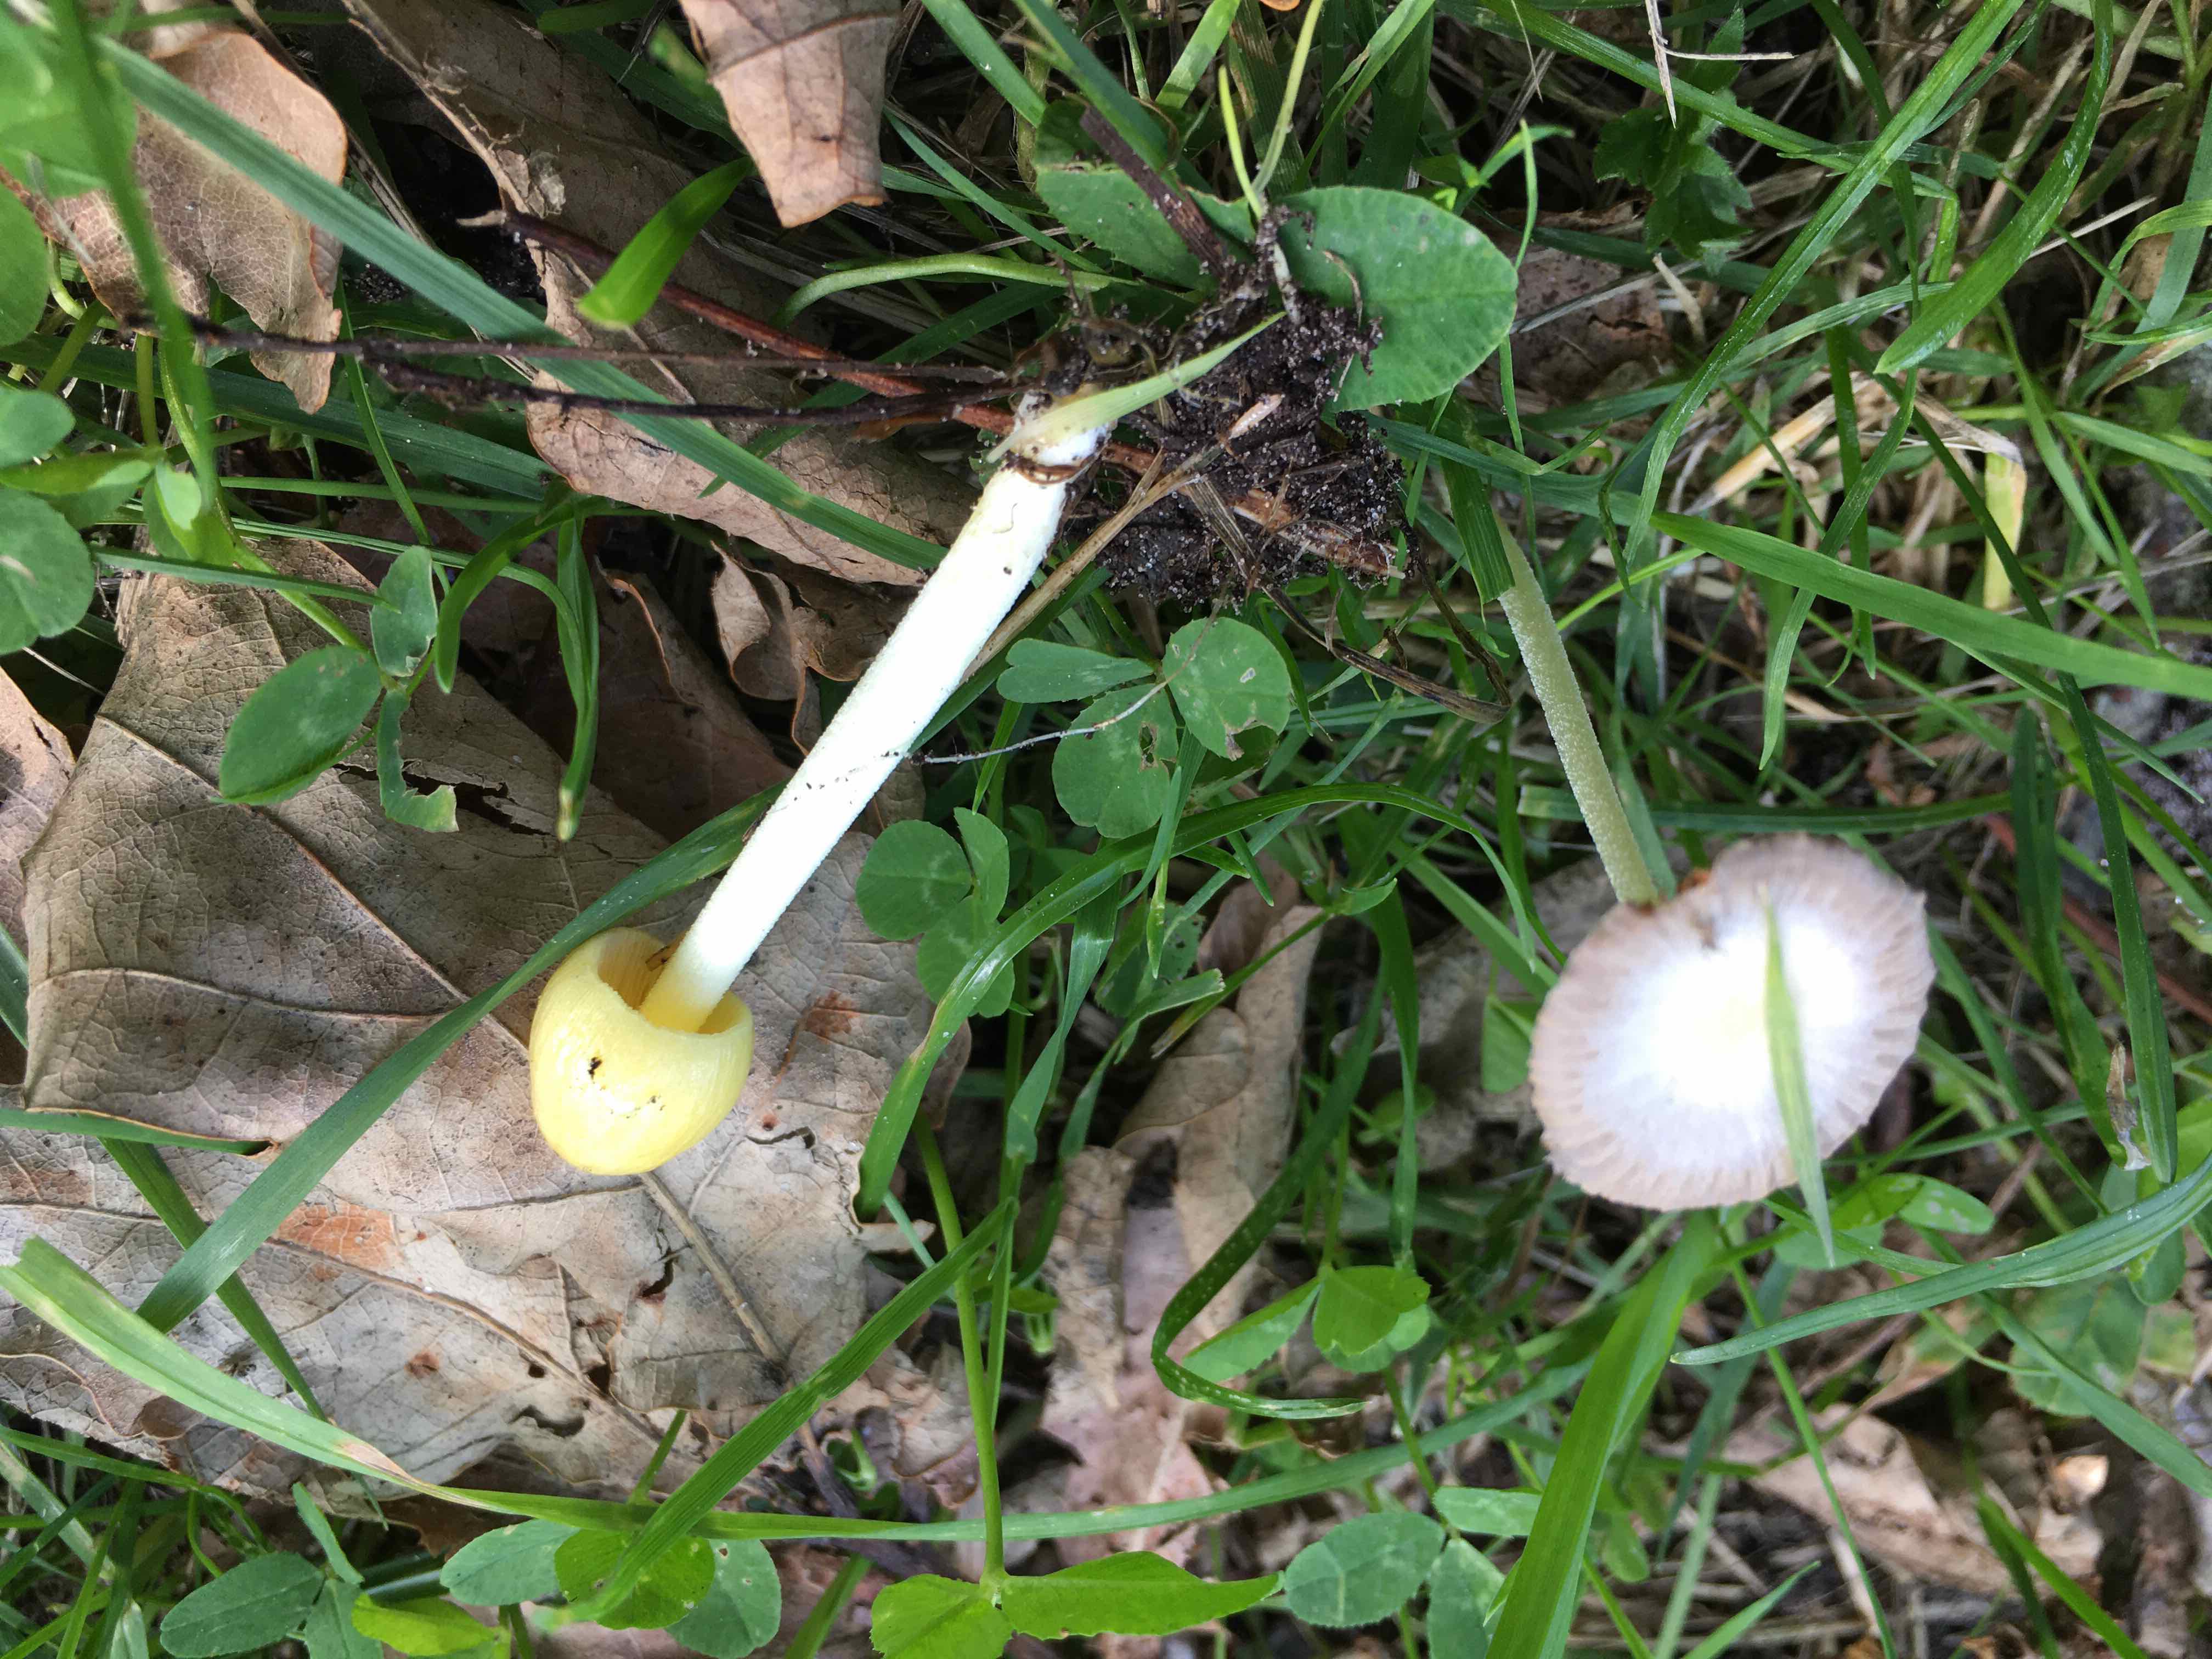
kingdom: Fungi
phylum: Basidiomycota
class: Agaricomycetes
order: Agaricales
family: Bolbitiaceae
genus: Bolbitius
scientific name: Bolbitius titubans
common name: almindelig gulhat
